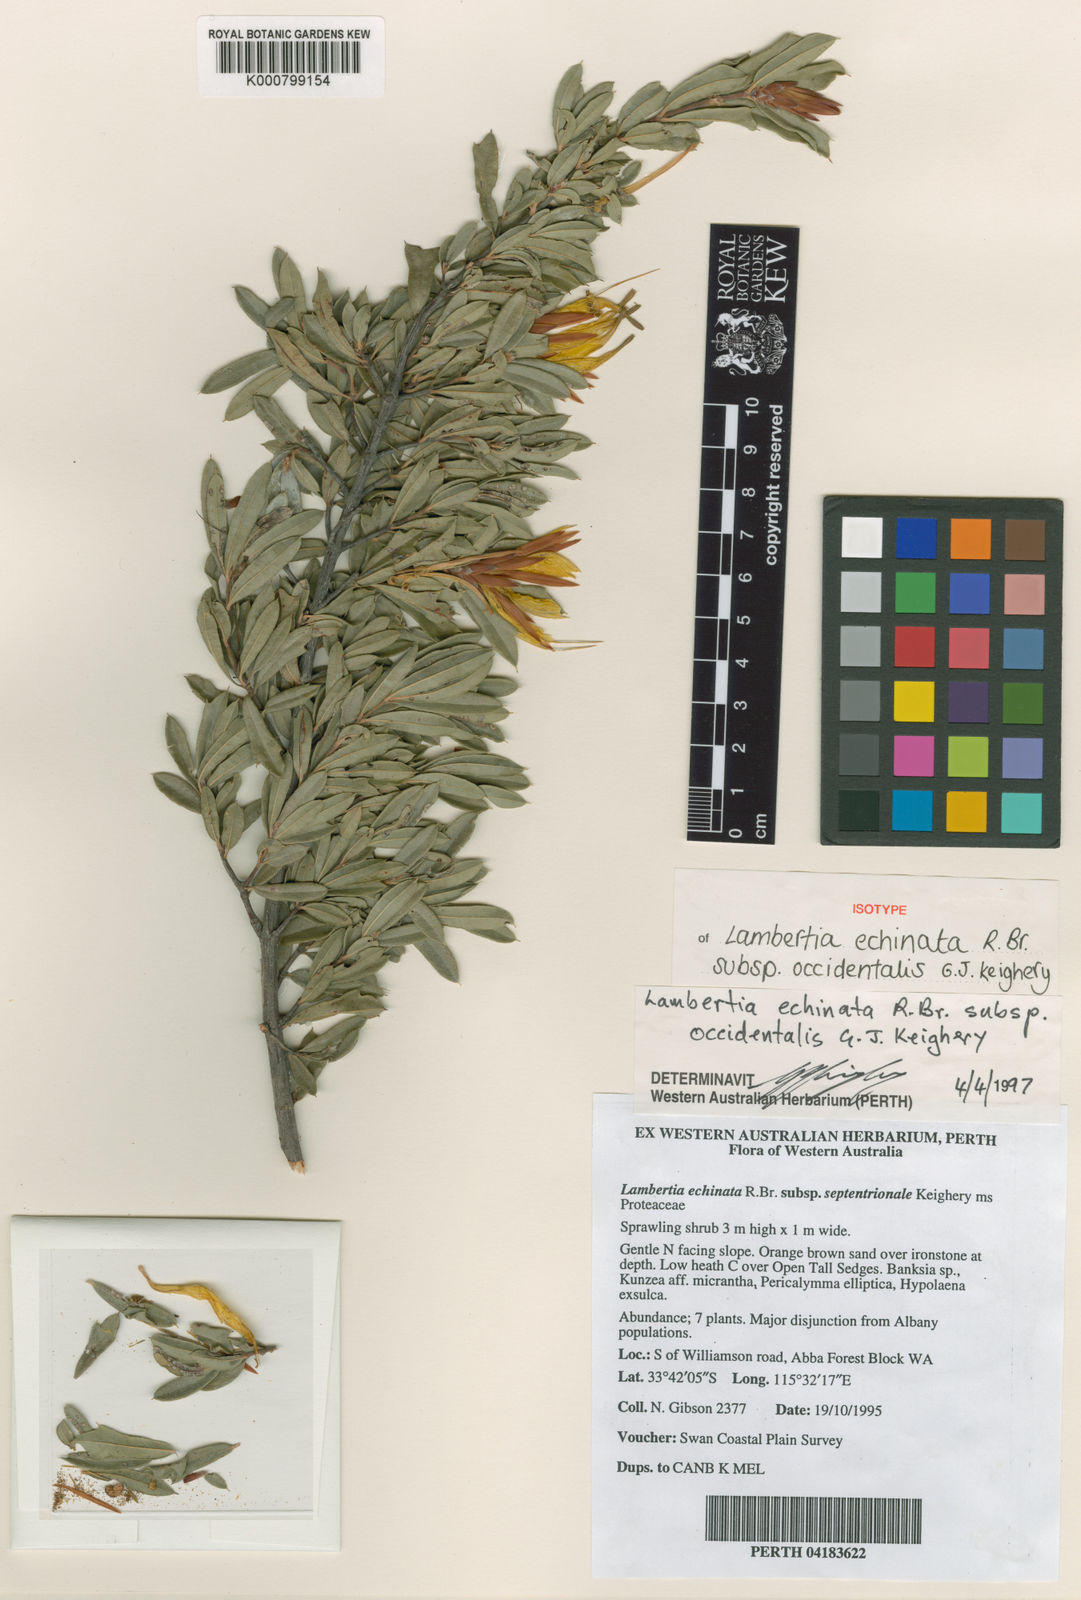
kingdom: Plantae
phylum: Tracheophyta
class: Magnoliopsida
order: Proteales
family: Proteaceae
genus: Lambertia
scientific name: Lambertia echinata
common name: Prickly honeysuckle
